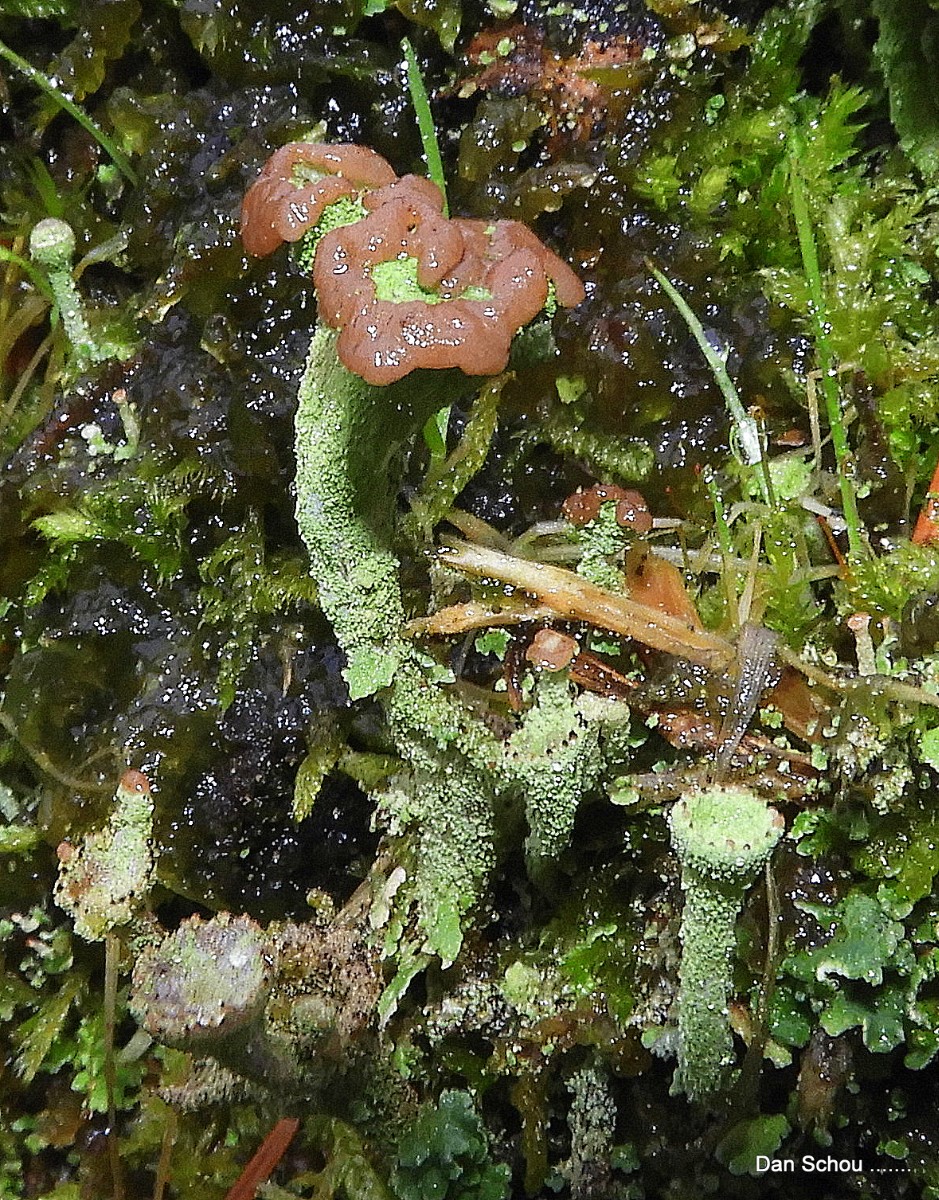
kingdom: Fungi
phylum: Ascomycota
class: Lecanoromycetes
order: Lecanorales
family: Cladoniaceae
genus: Cladonia
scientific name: Cladonia
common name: brungrøn bægerlav
